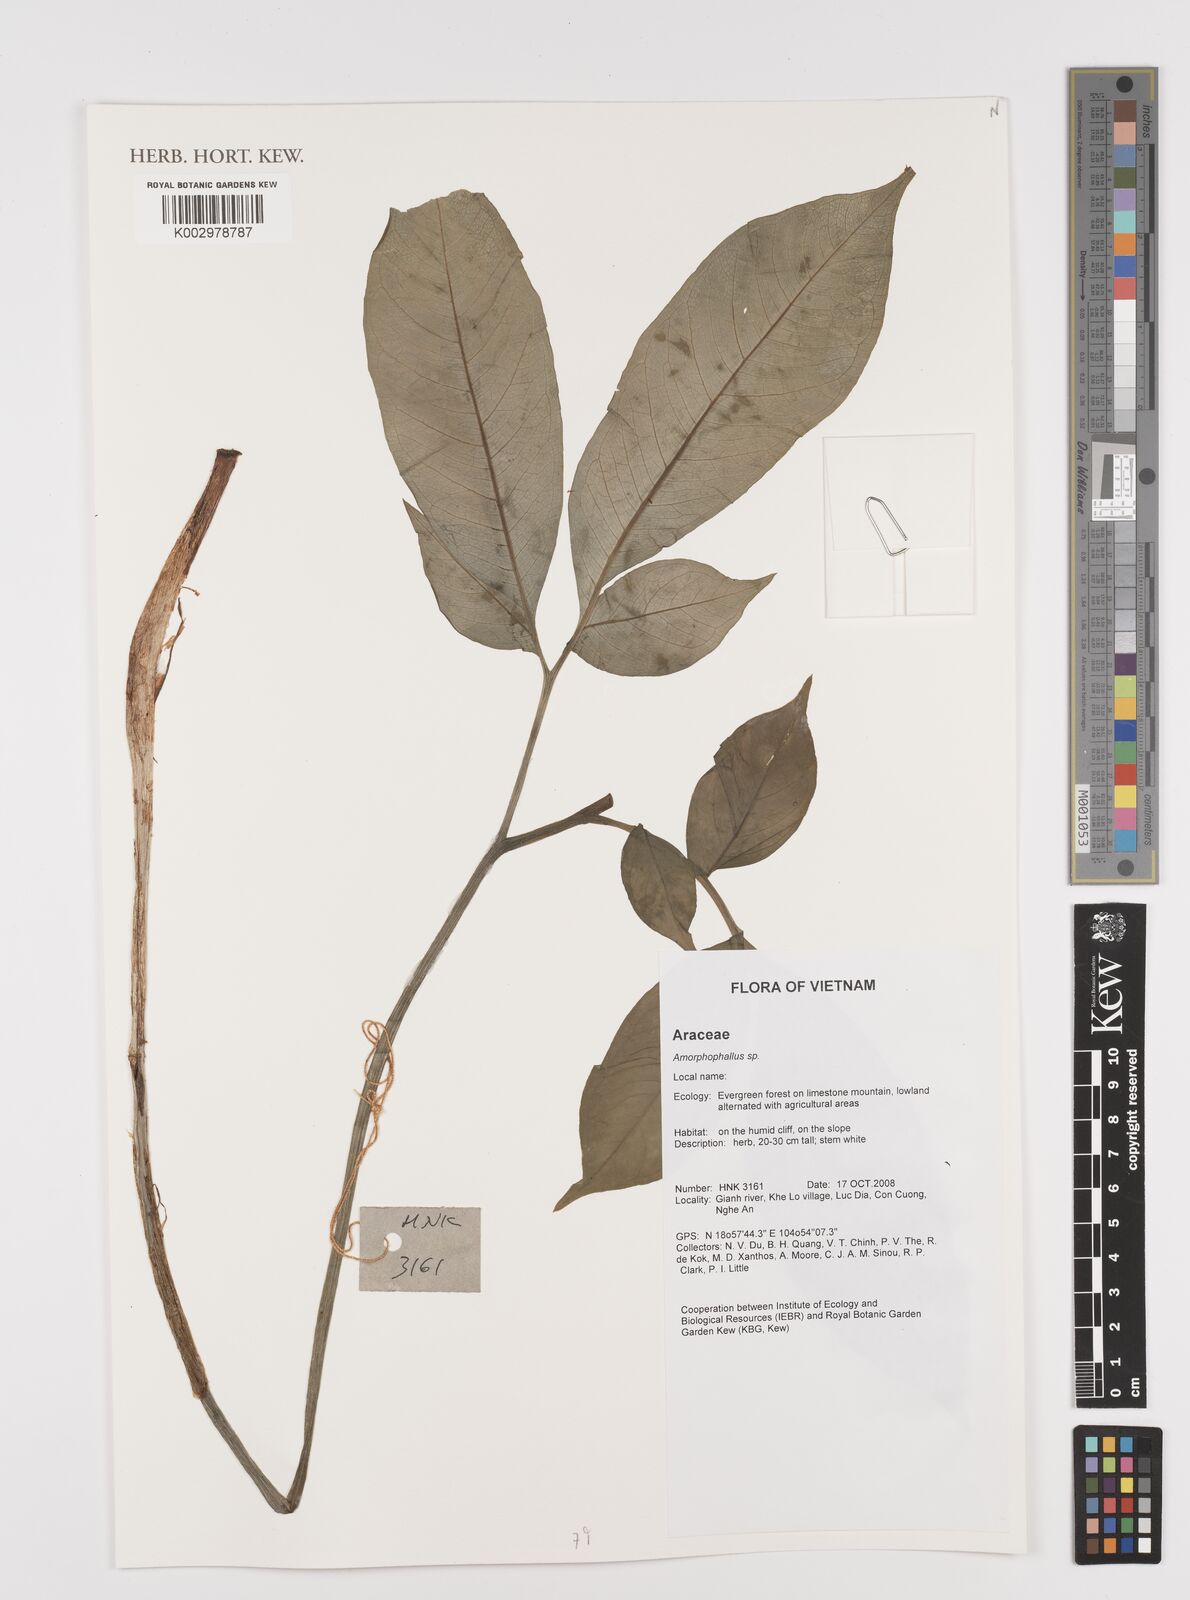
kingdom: Plantae
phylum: Tracheophyta
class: Liliopsida
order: Alismatales
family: Araceae
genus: Amorphophallus
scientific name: Amorphophallus
